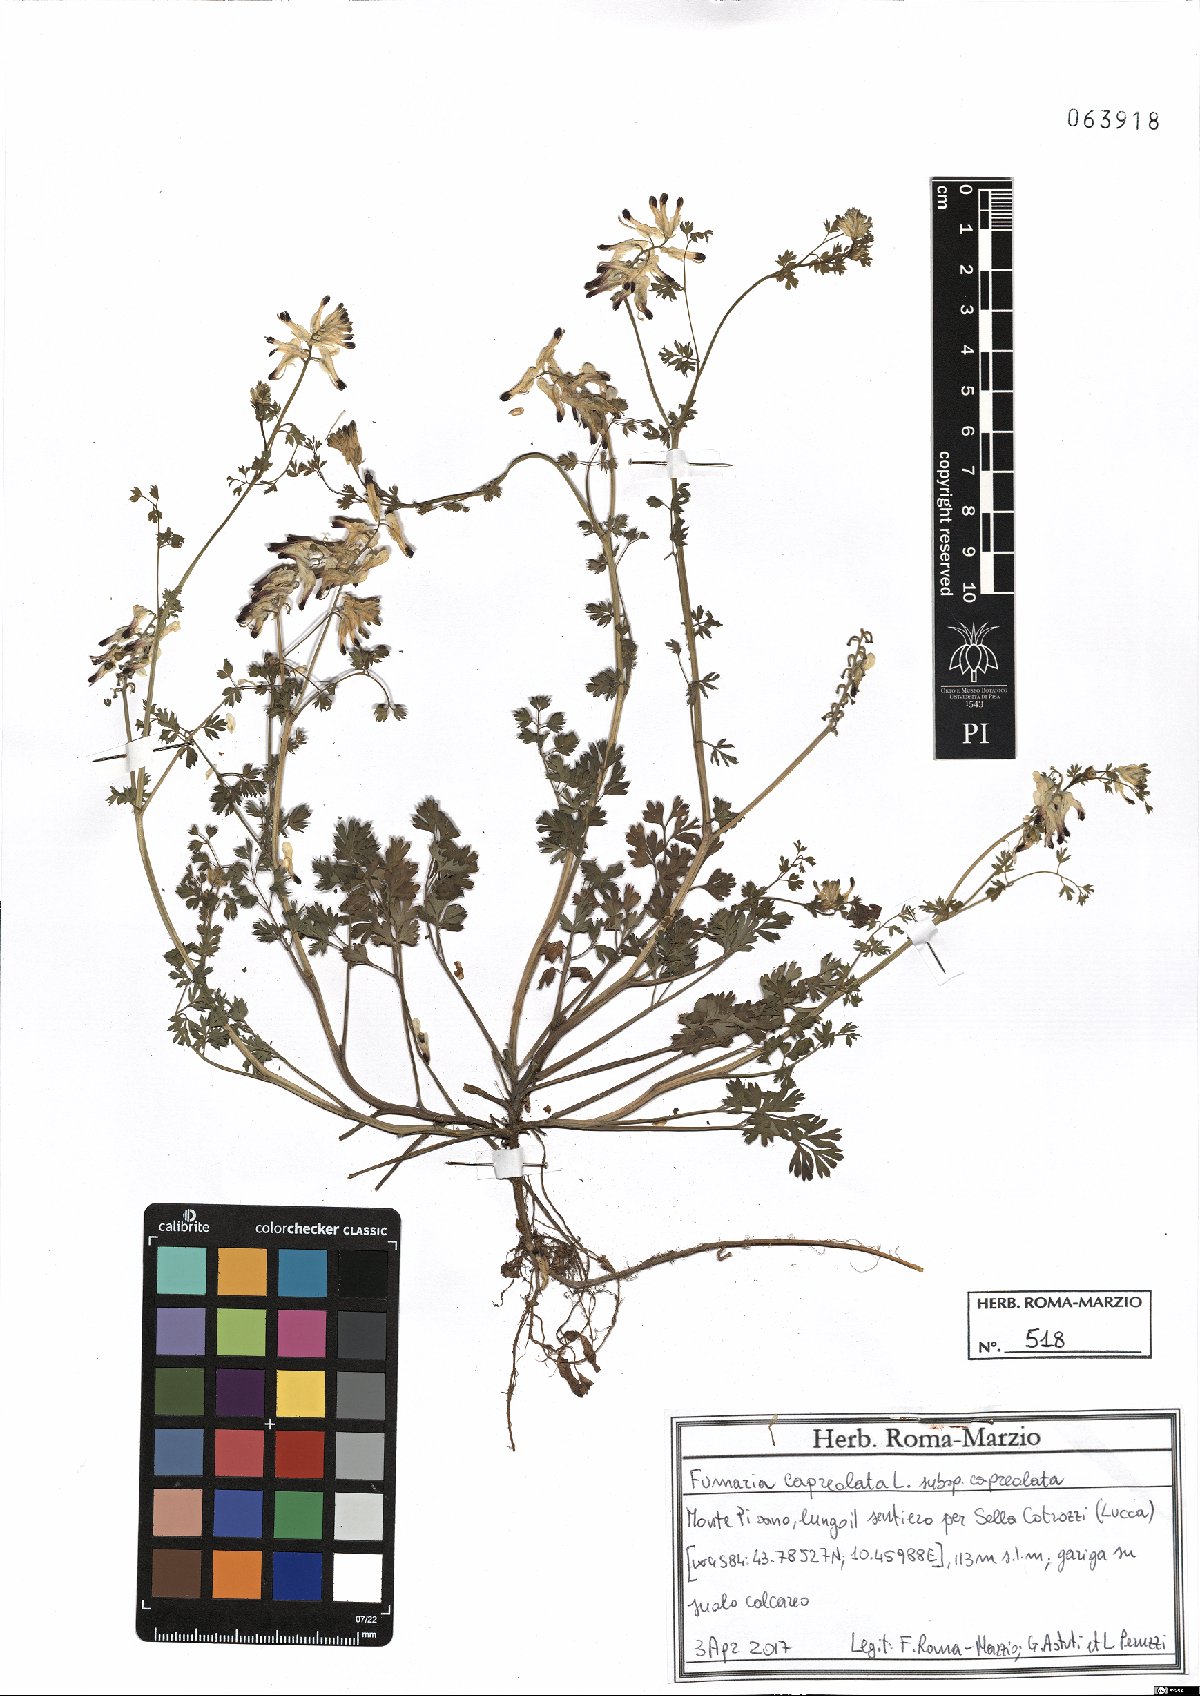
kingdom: Plantae
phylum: Tracheophyta
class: Magnoliopsida
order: Ranunculales
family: Papaveraceae
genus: Fumaria
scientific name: Fumaria capreolata
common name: White ramping-fumitory
